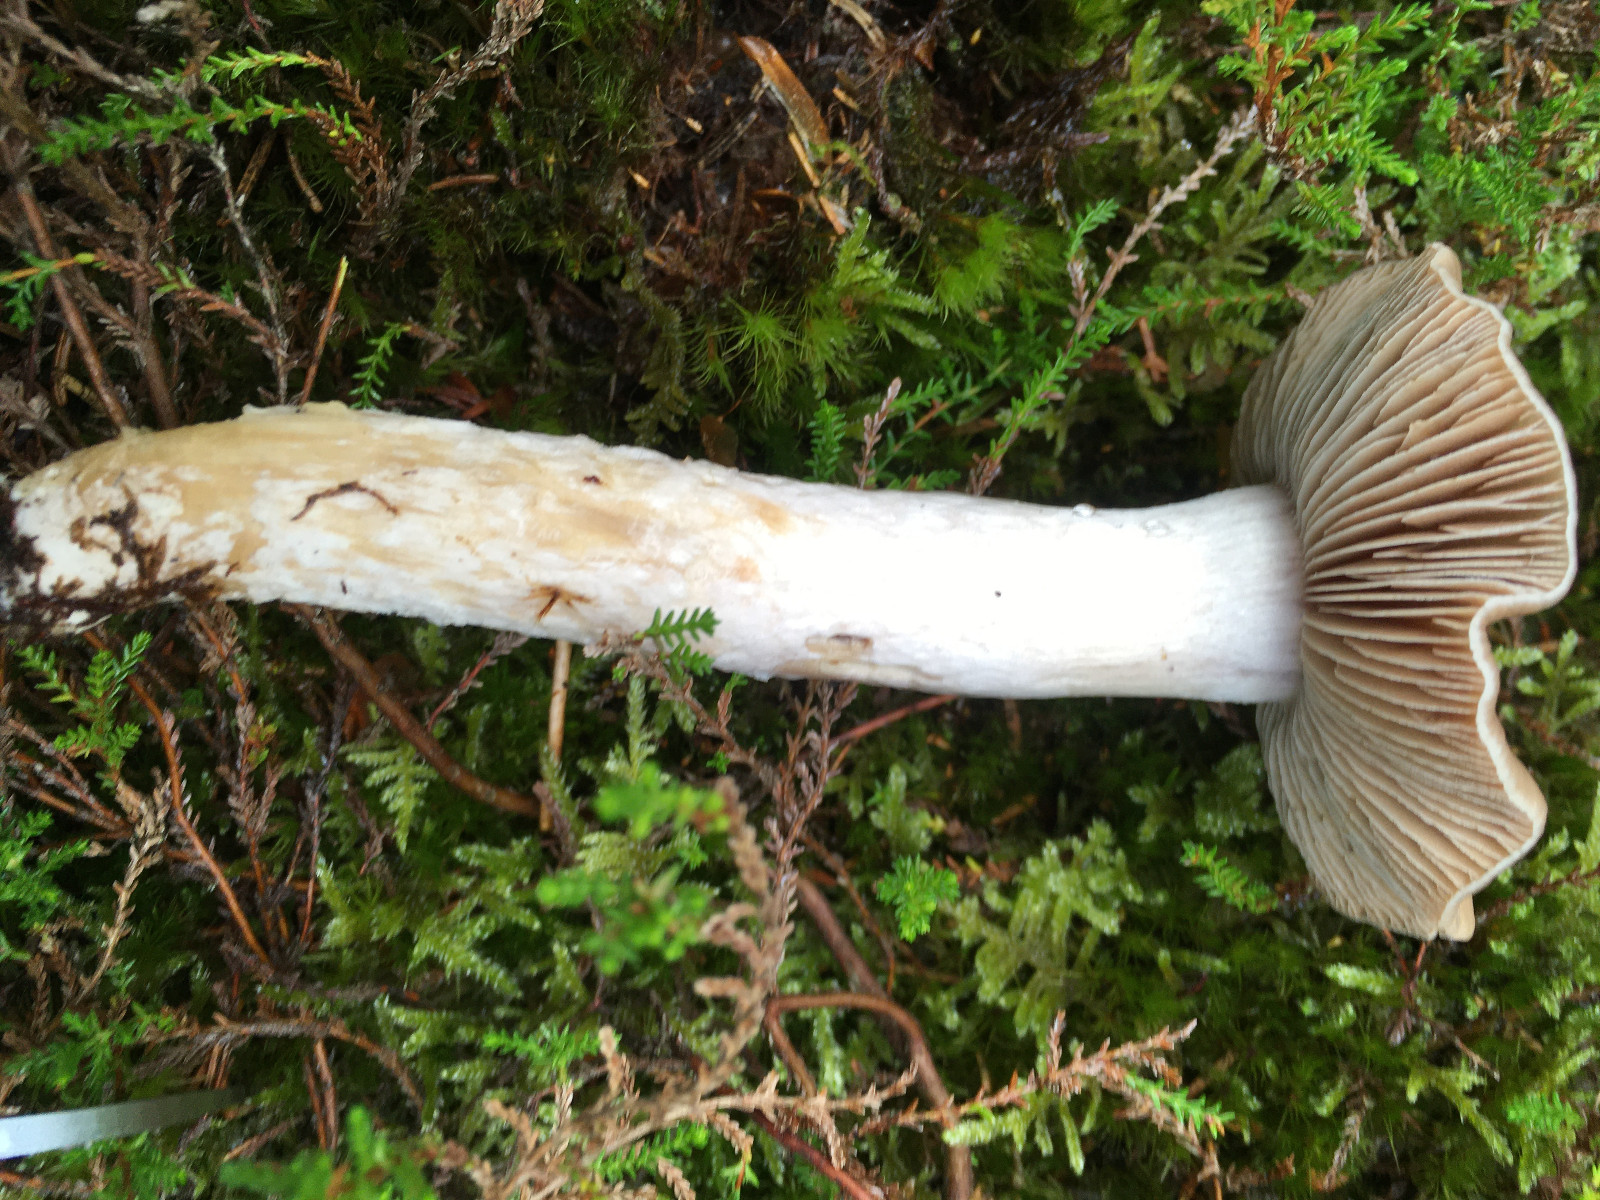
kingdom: Fungi
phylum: Basidiomycota
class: Agaricomycetes
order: Agaricales
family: Cortinariaceae
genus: Cortinarius
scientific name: Cortinarius
